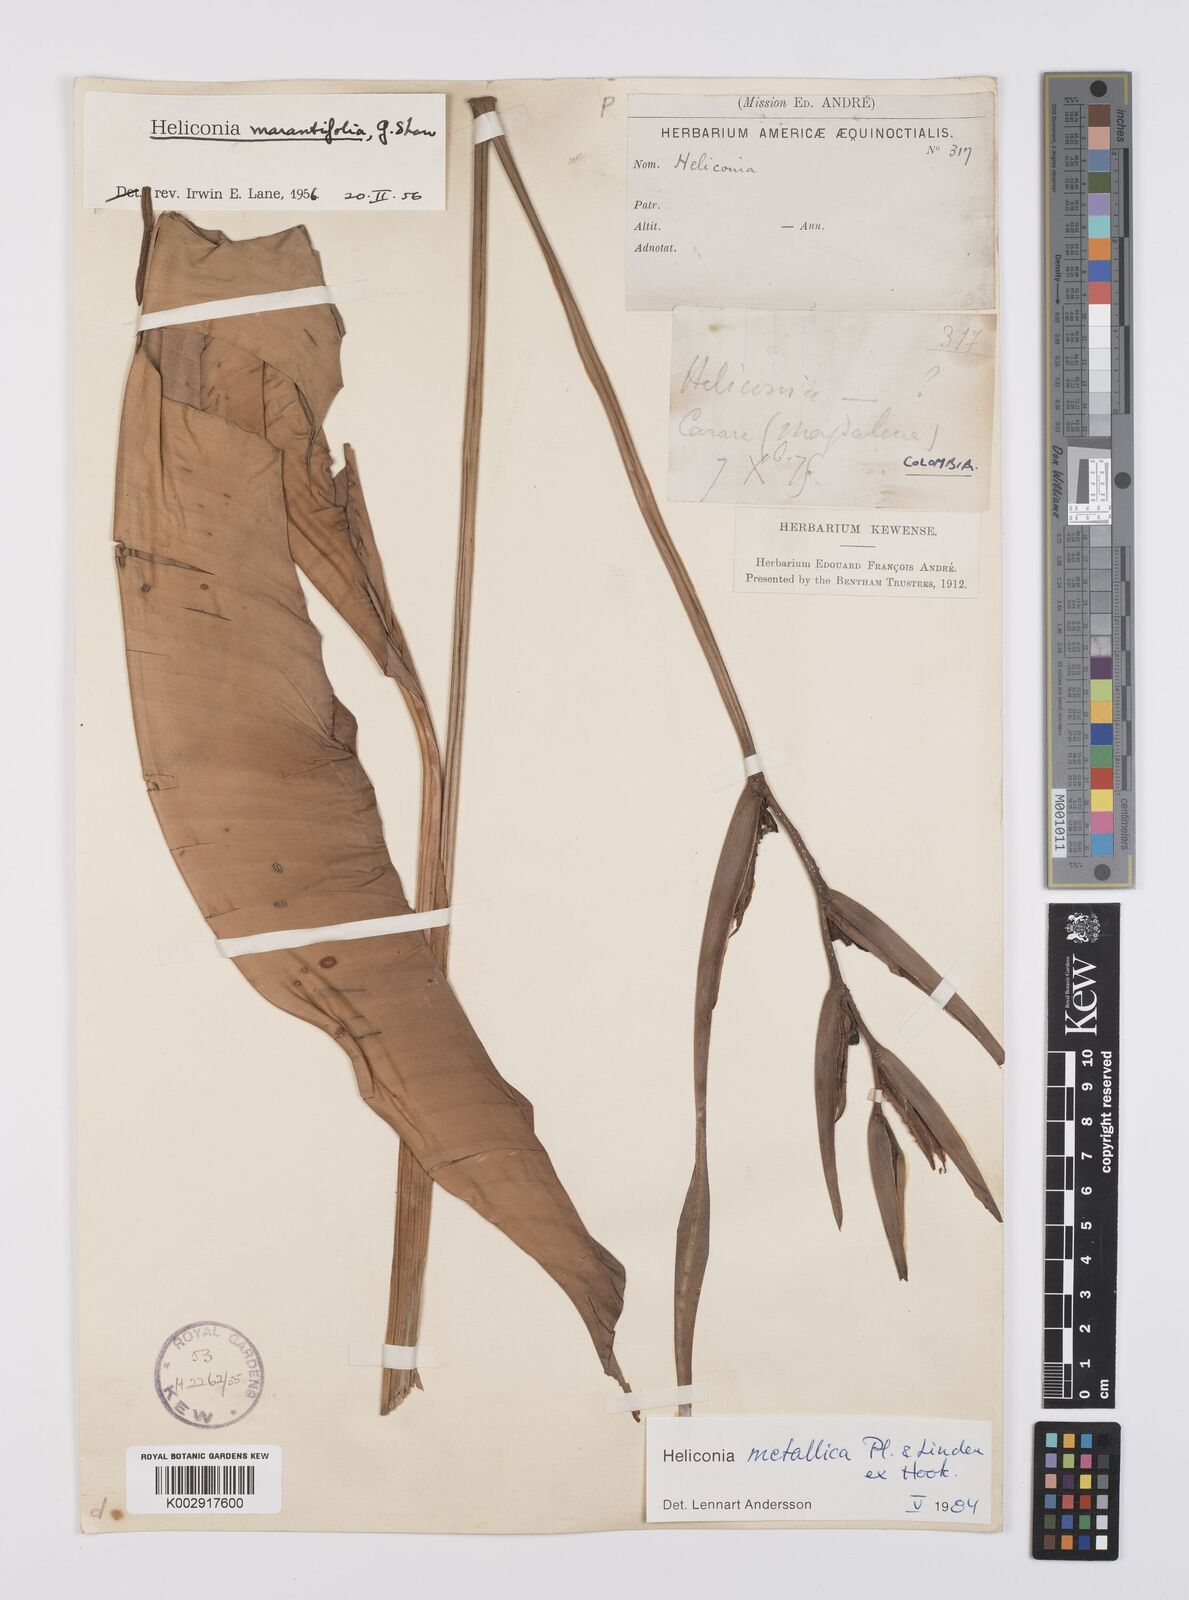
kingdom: Plantae
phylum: Tracheophyta
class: Liliopsida
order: Zingiberales
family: Heliconiaceae
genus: Heliconia
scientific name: Heliconia metallica
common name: Shining bird of paradise
